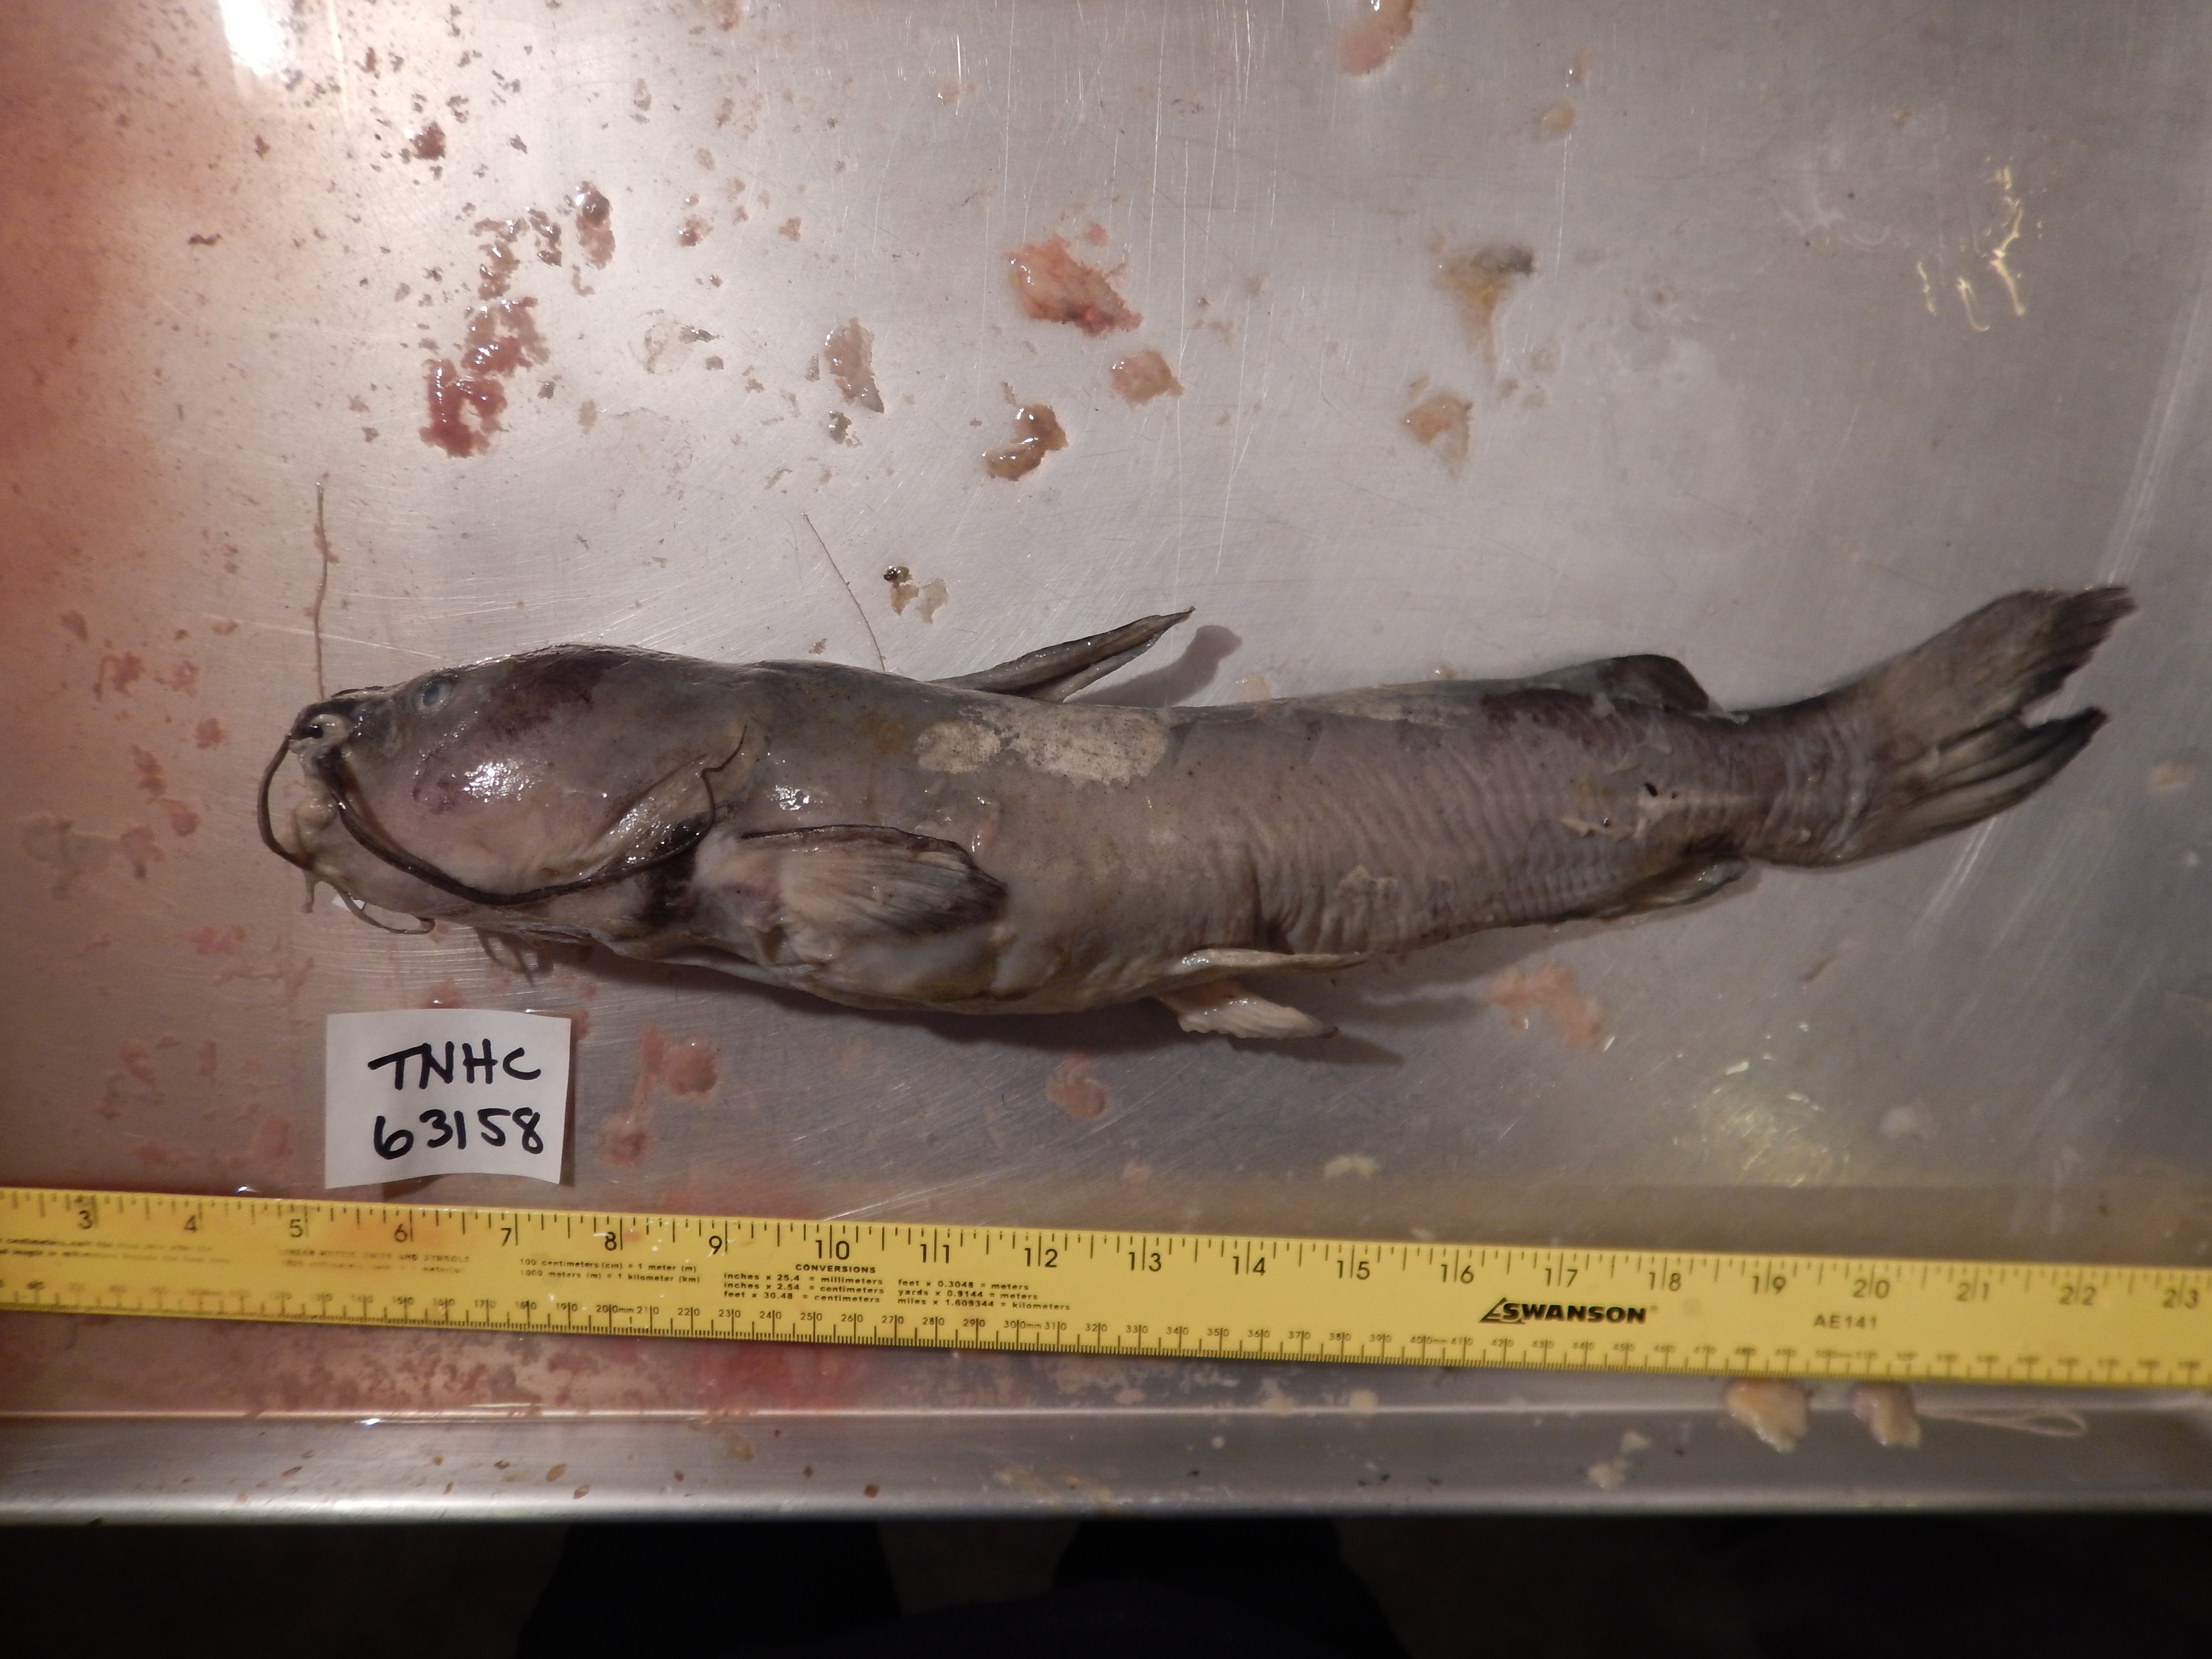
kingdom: Animalia
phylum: Chordata
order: Siluriformes
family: Ictaluridae
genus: Ictalurus
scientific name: Ictalurus pricei
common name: Yaqui catfish
